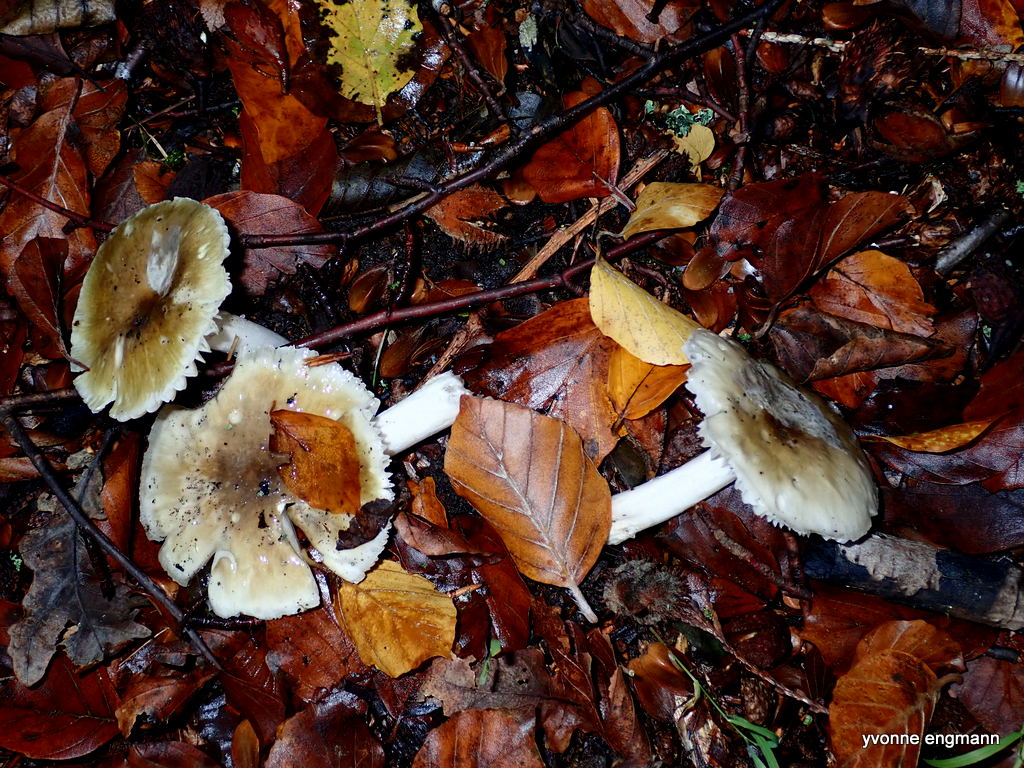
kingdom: Fungi
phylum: Basidiomycota
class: Agaricomycetes
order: Agaricales
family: Amanitaceae
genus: Amanita
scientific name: Amanita phalloides
